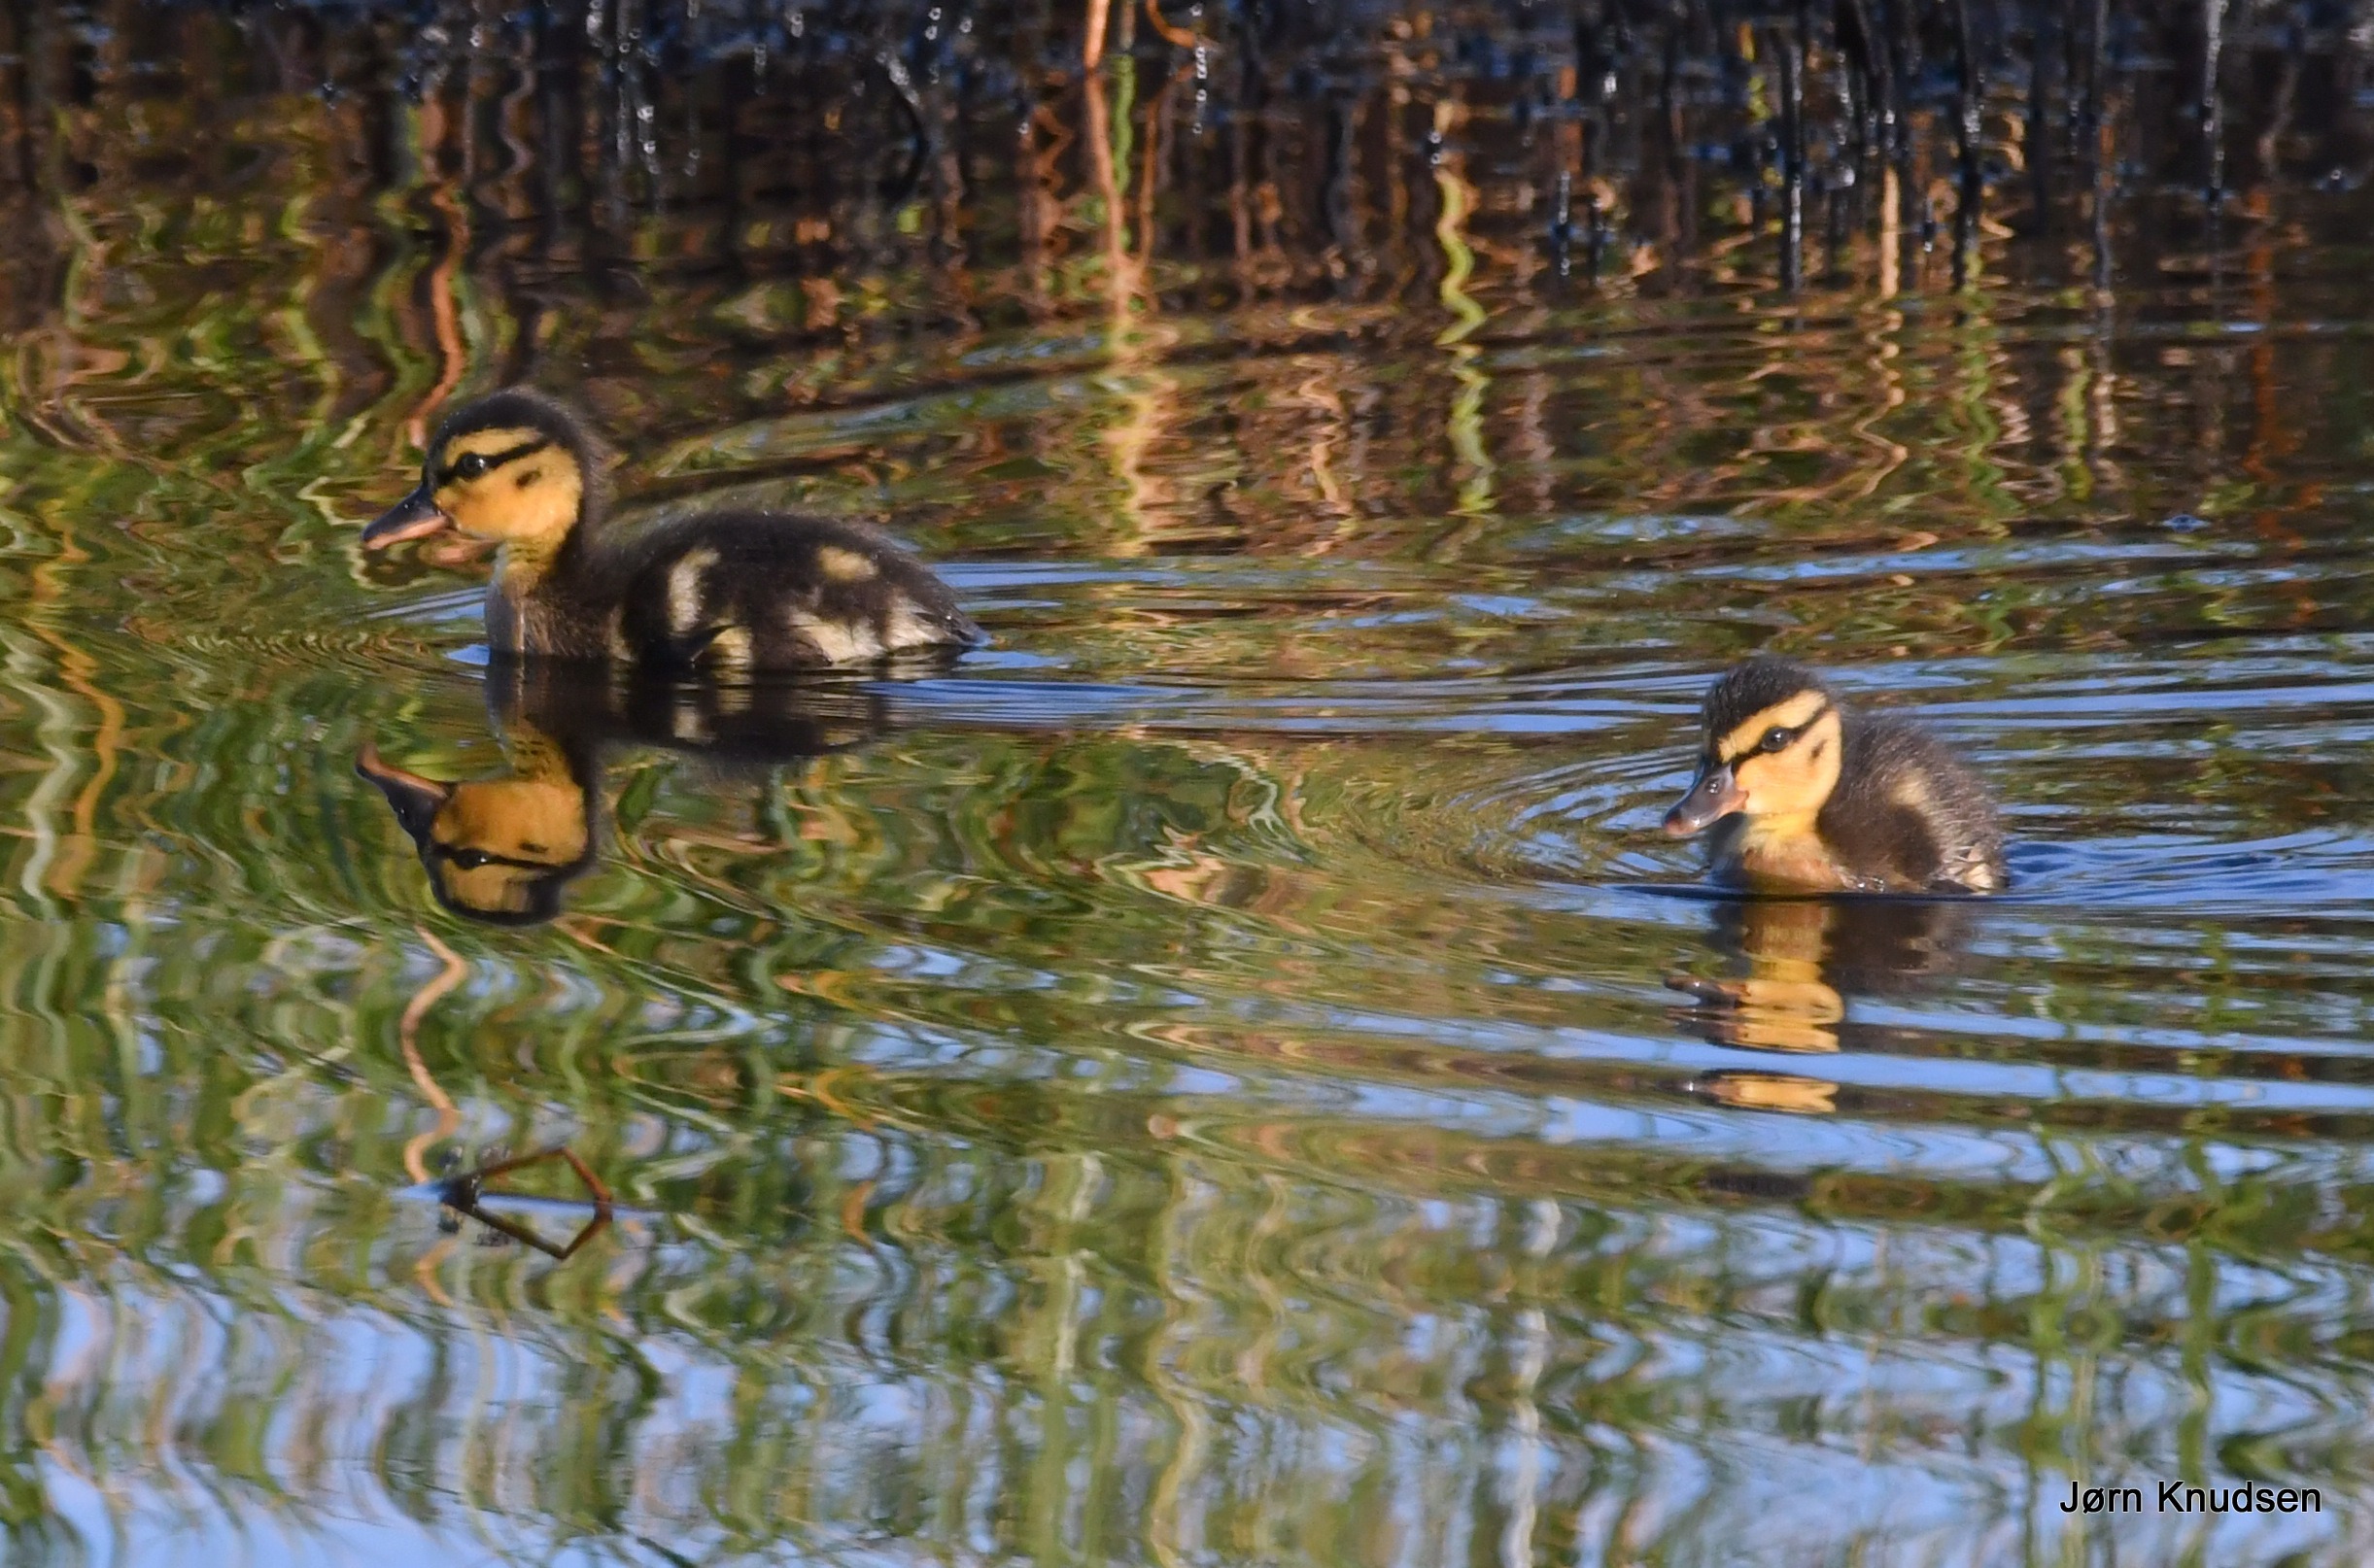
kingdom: Animalia
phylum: Chordata
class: Aves
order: Anseriformes
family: Anatidae
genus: Anas
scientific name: Anas platyrhynchos
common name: Gråand
